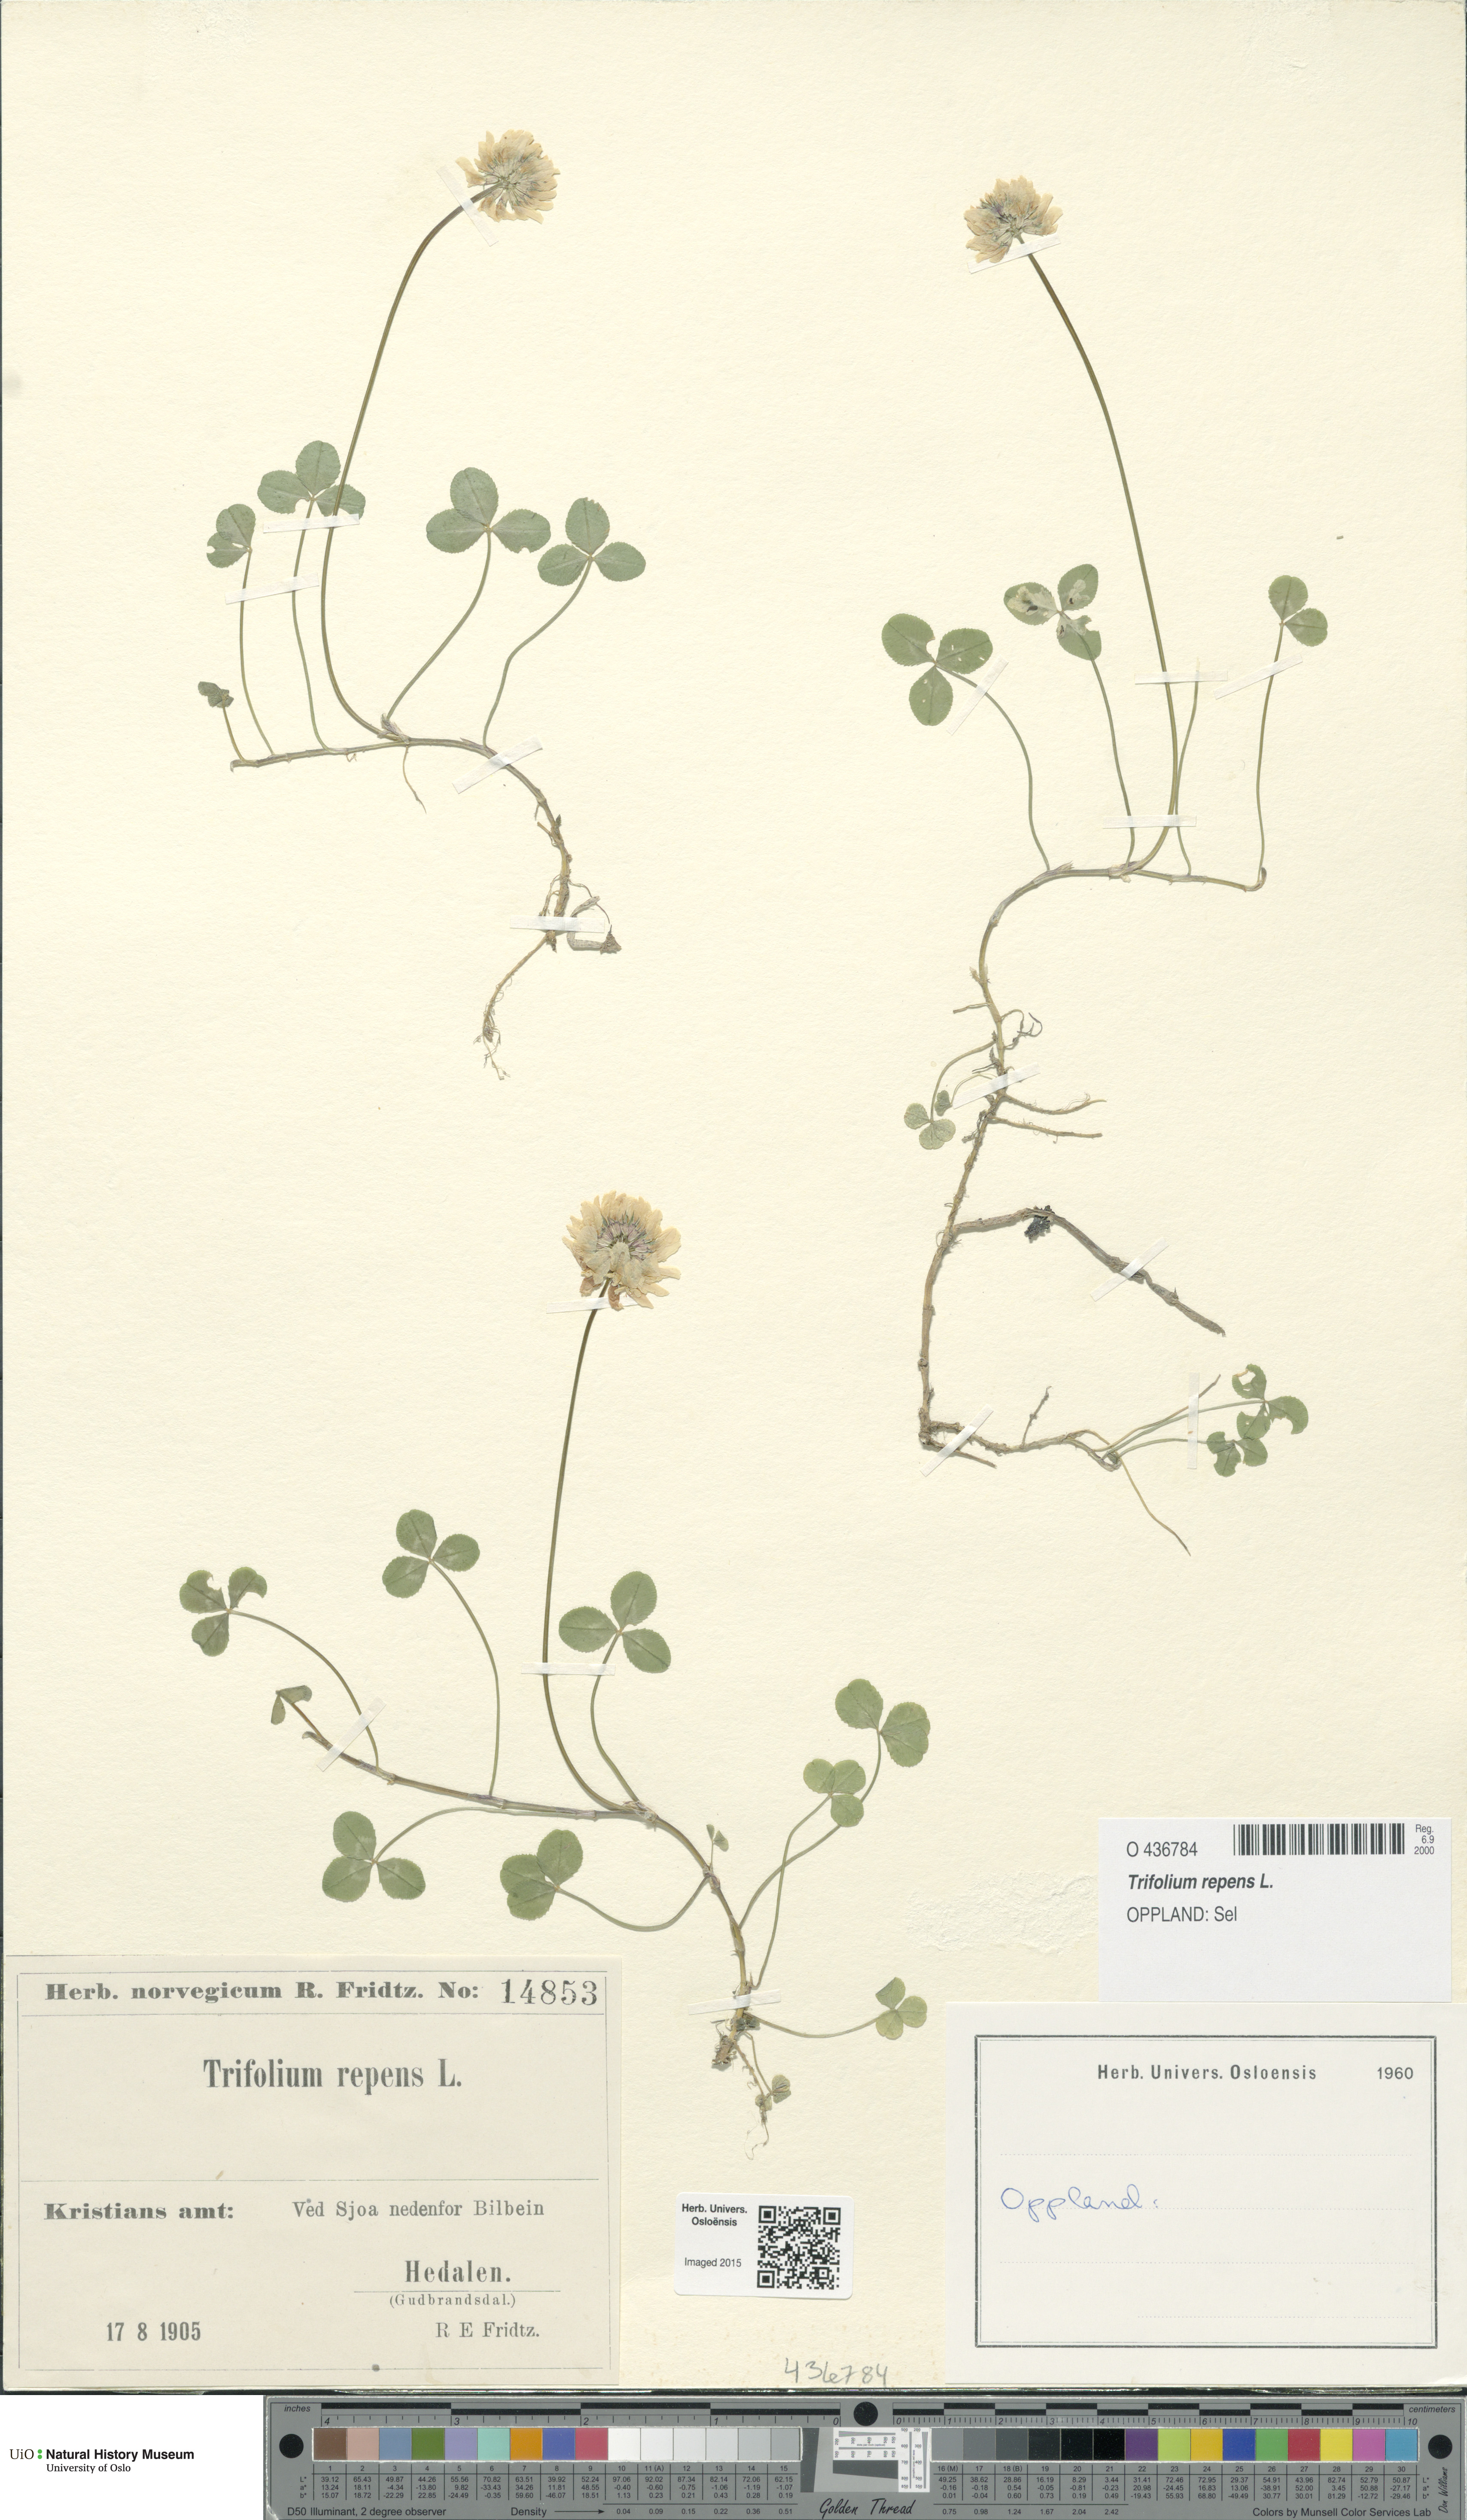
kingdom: Plantae
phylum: Tracheophyta
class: Magnoliopsida
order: Fabales
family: Fabaceae
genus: Trifolium
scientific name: Trifolium repens
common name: White clover
